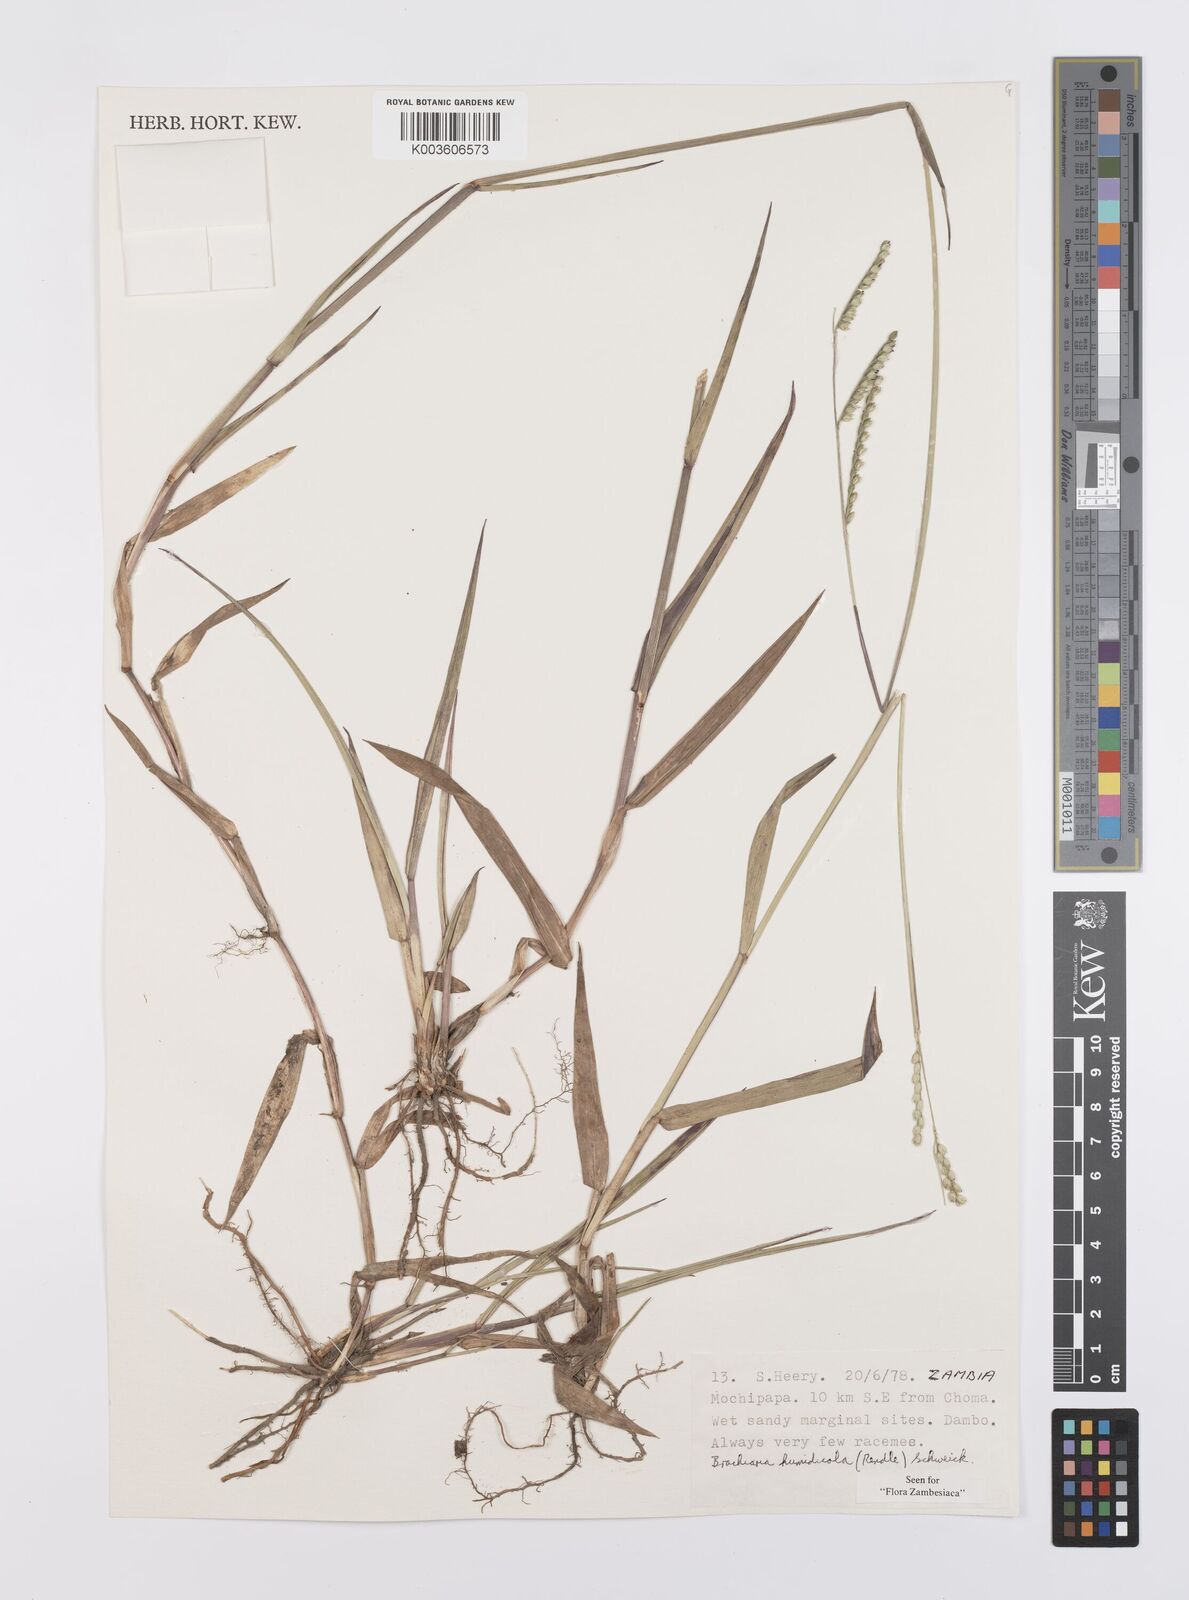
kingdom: Plantae
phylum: Tracheophyta
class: Liliopsida
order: Poales
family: Poaceae
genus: Urochloa
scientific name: Urochloa dictyoneura
